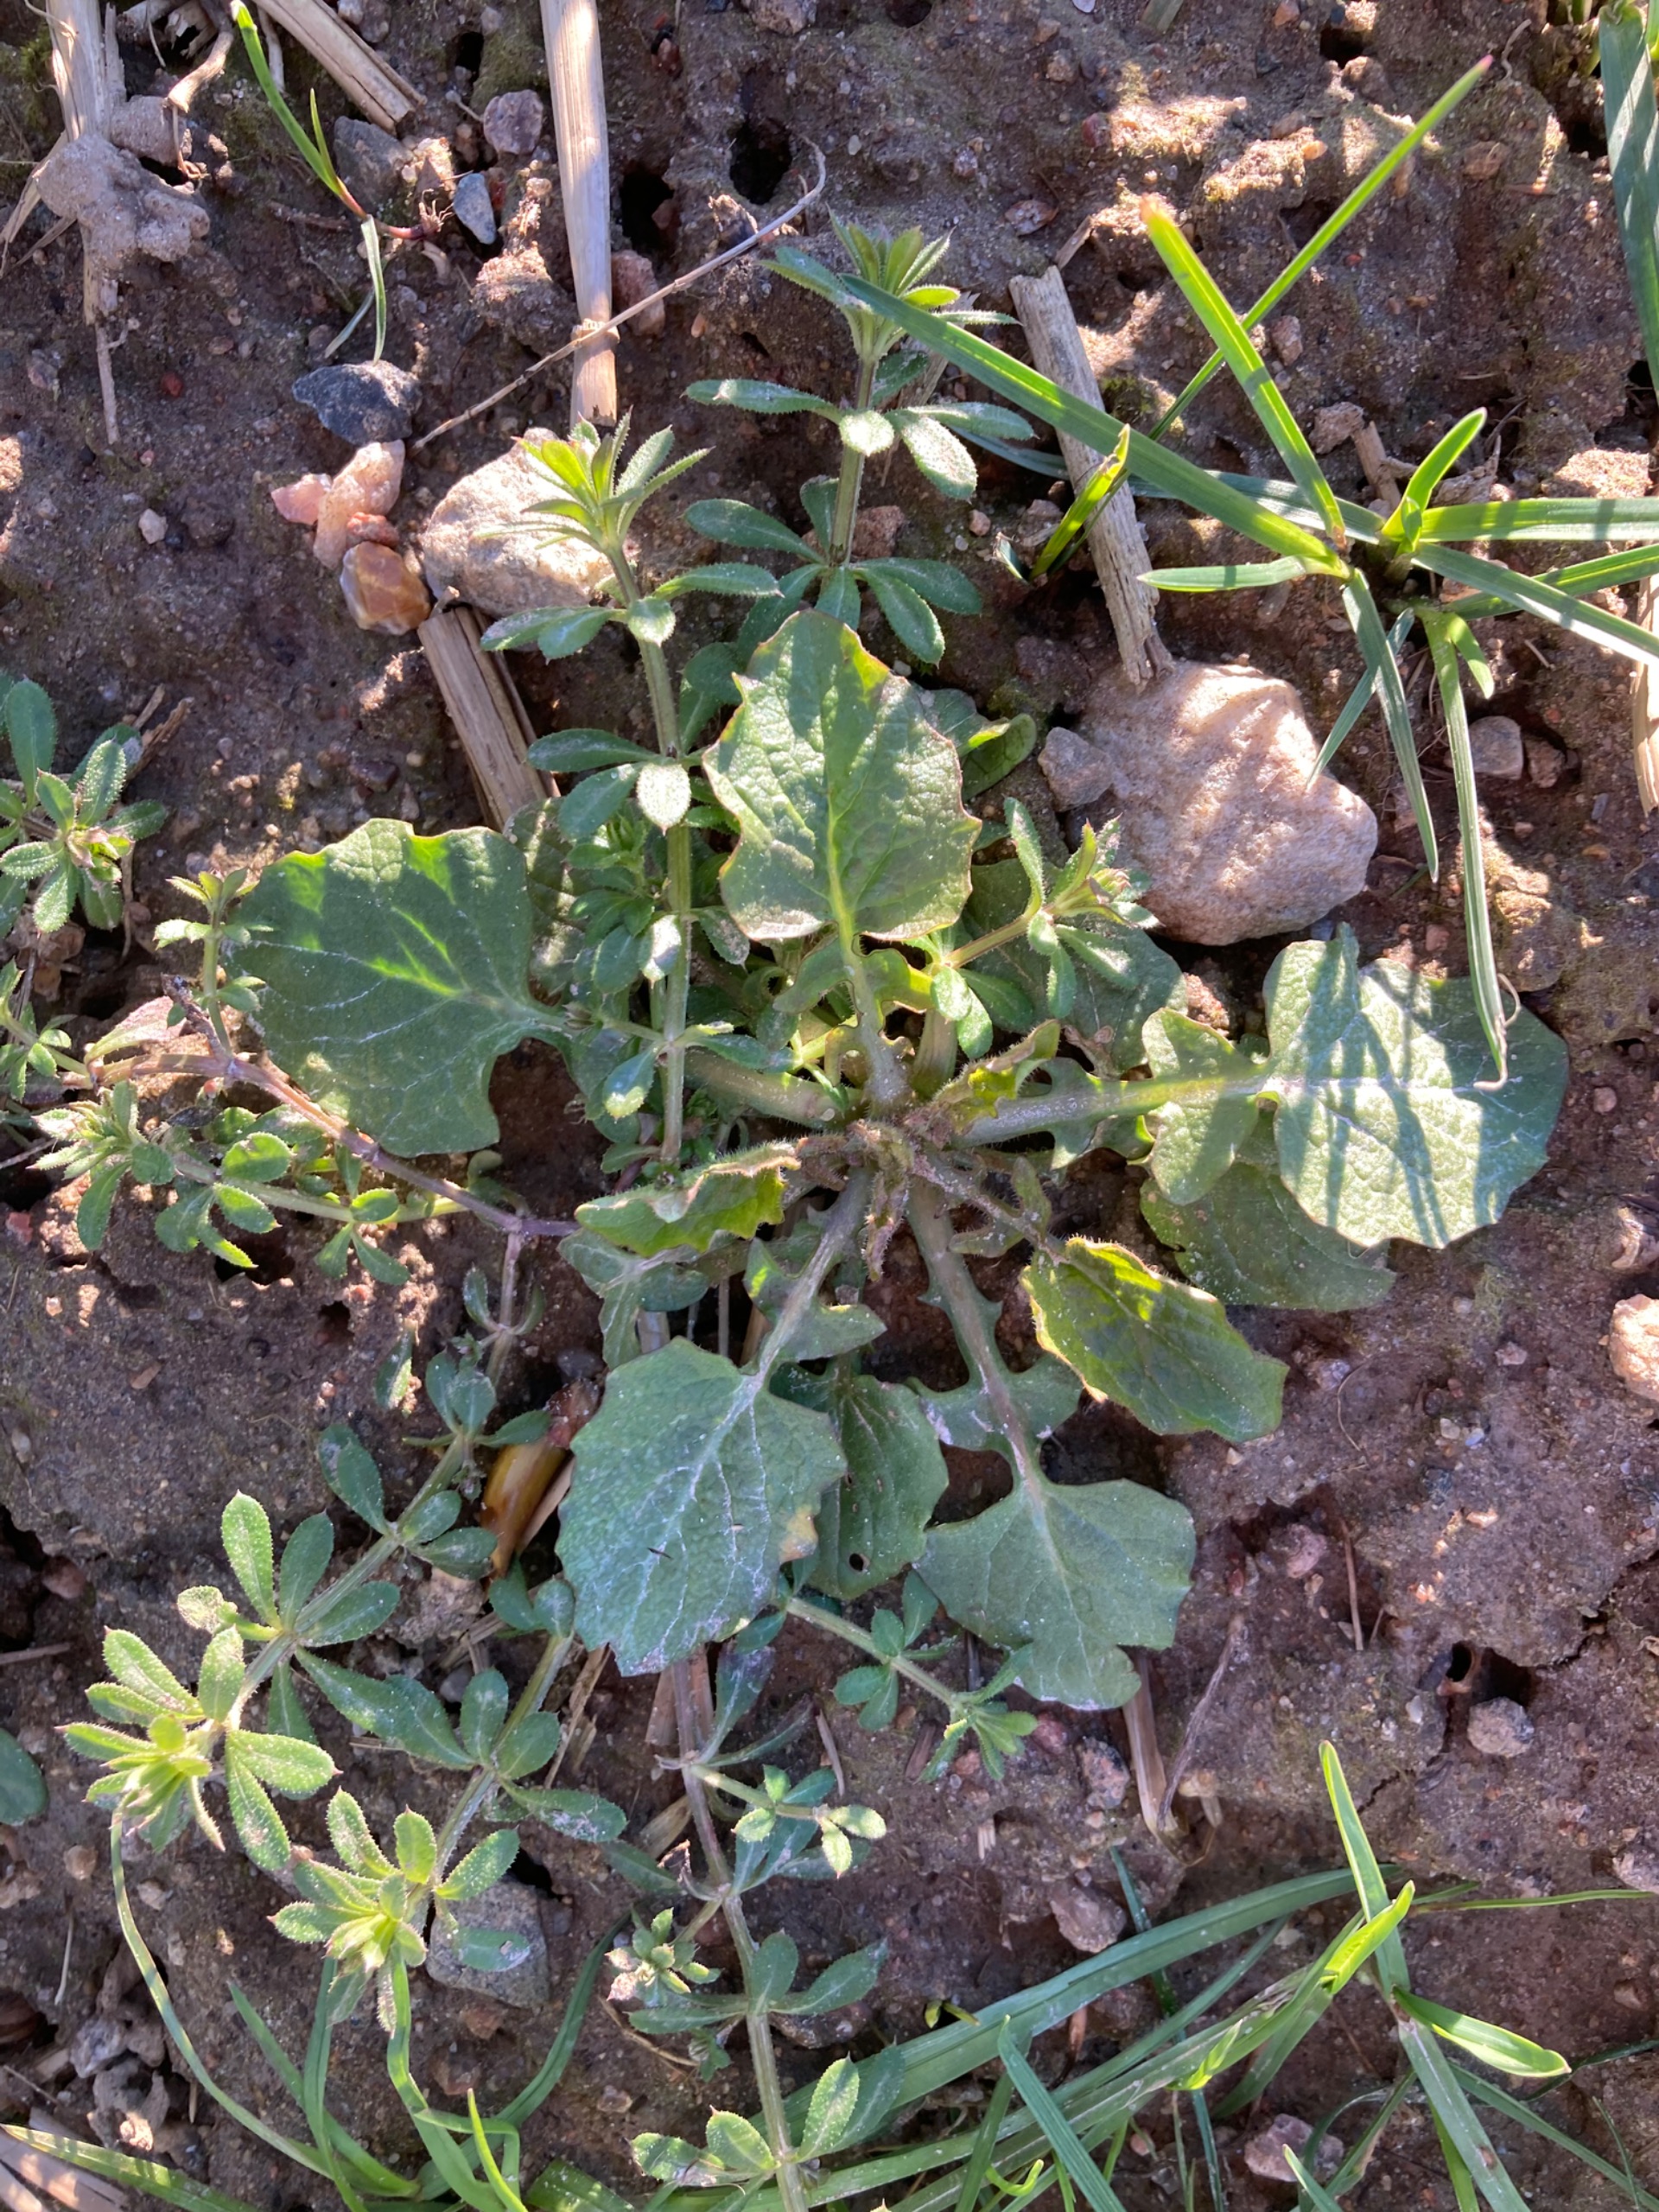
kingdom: Plantae
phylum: Tracheophyta
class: Magnoliopsida
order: Asterales
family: Asteraceae
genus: Lapsana
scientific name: Lapsana communis
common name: Haremad
